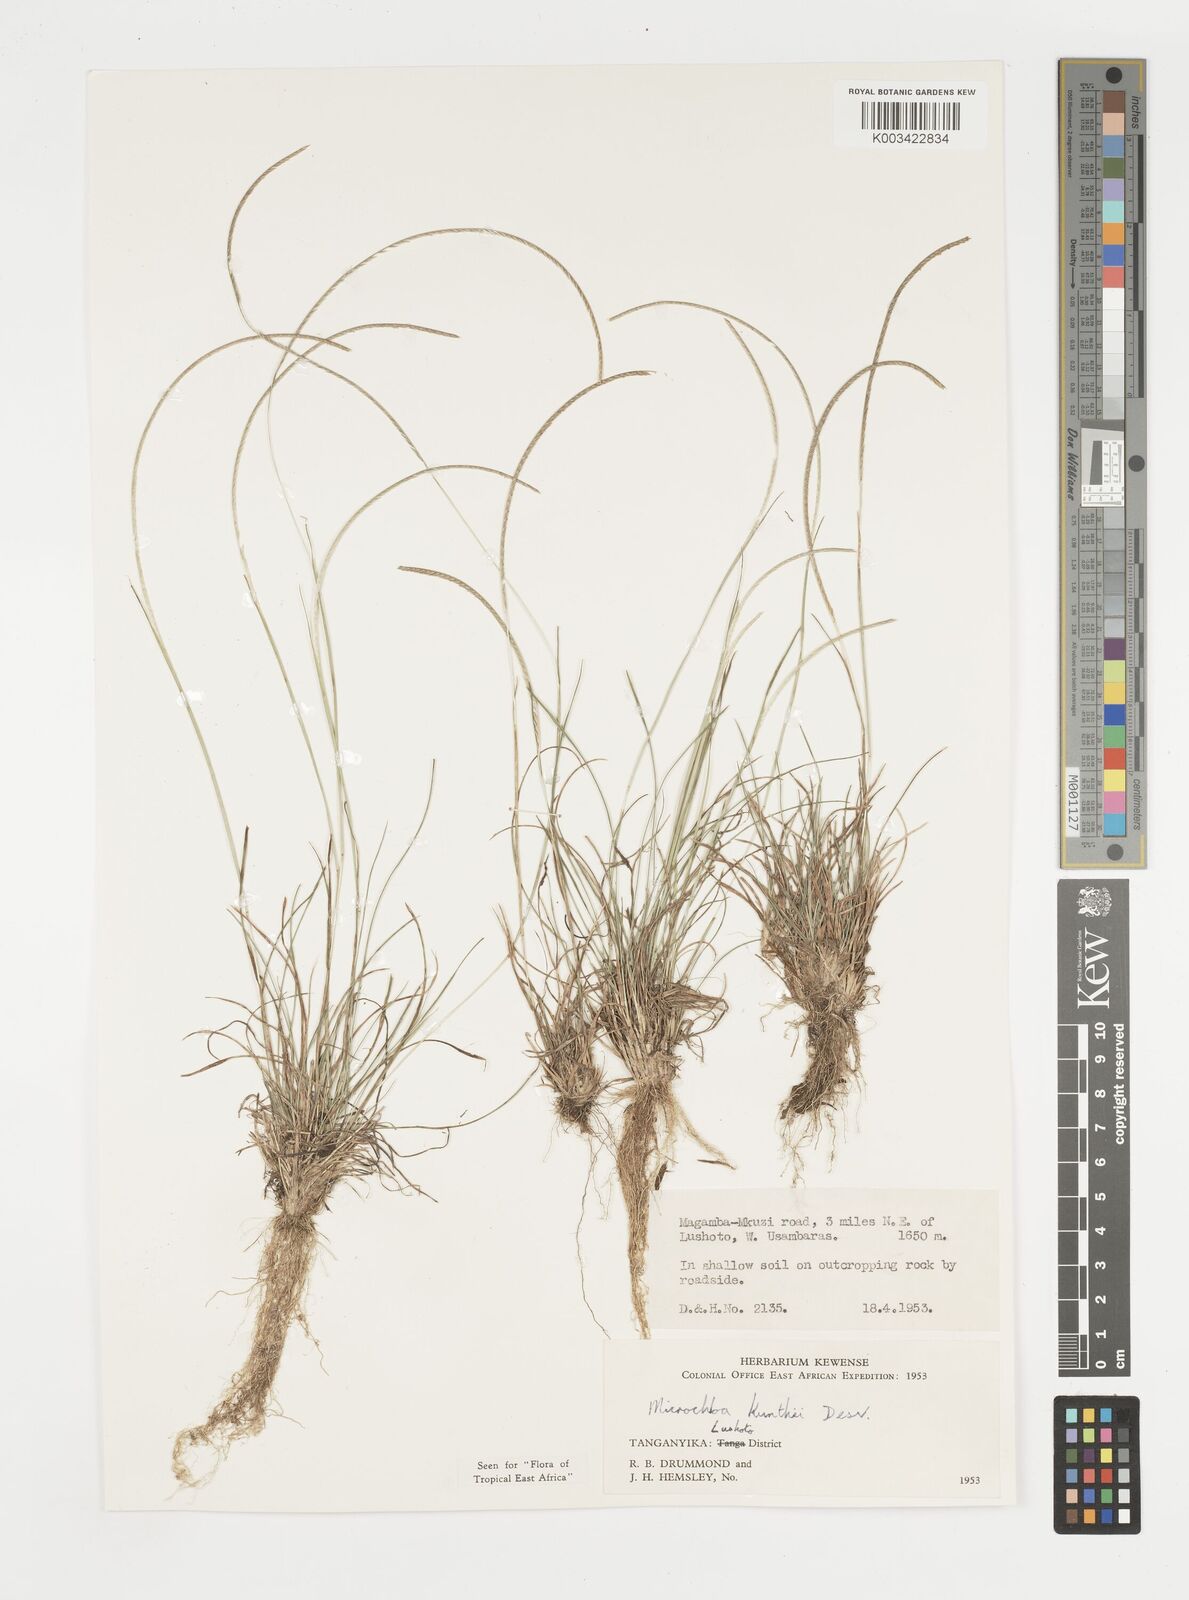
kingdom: Plantae
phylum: Tracheophyta
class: Liliopsida
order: Poales
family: Poaceae
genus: Microchloa
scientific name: Microchloa kunthii
